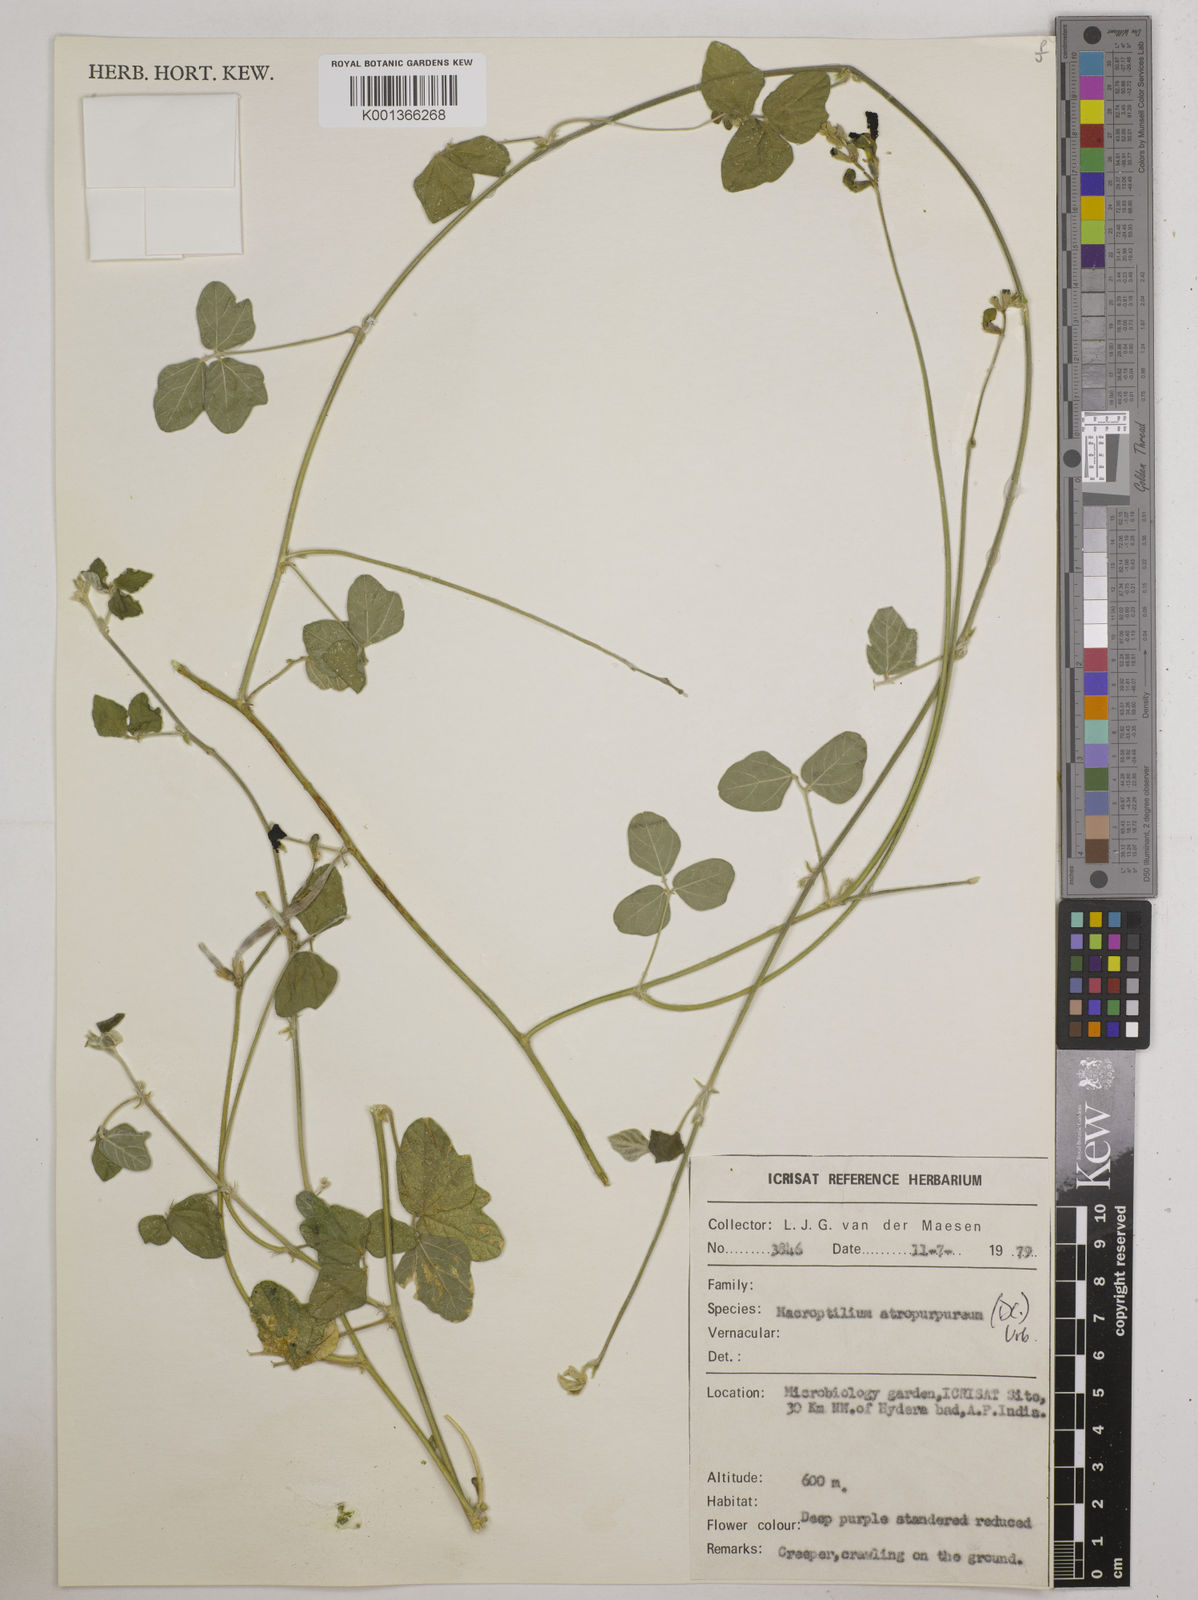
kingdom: Plantae
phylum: Tracheophyta
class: Magnoliopsida
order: Fabales
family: Fabaceae
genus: Macroptilium
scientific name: Macroptilium atropurpureum
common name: Purple bushbean
